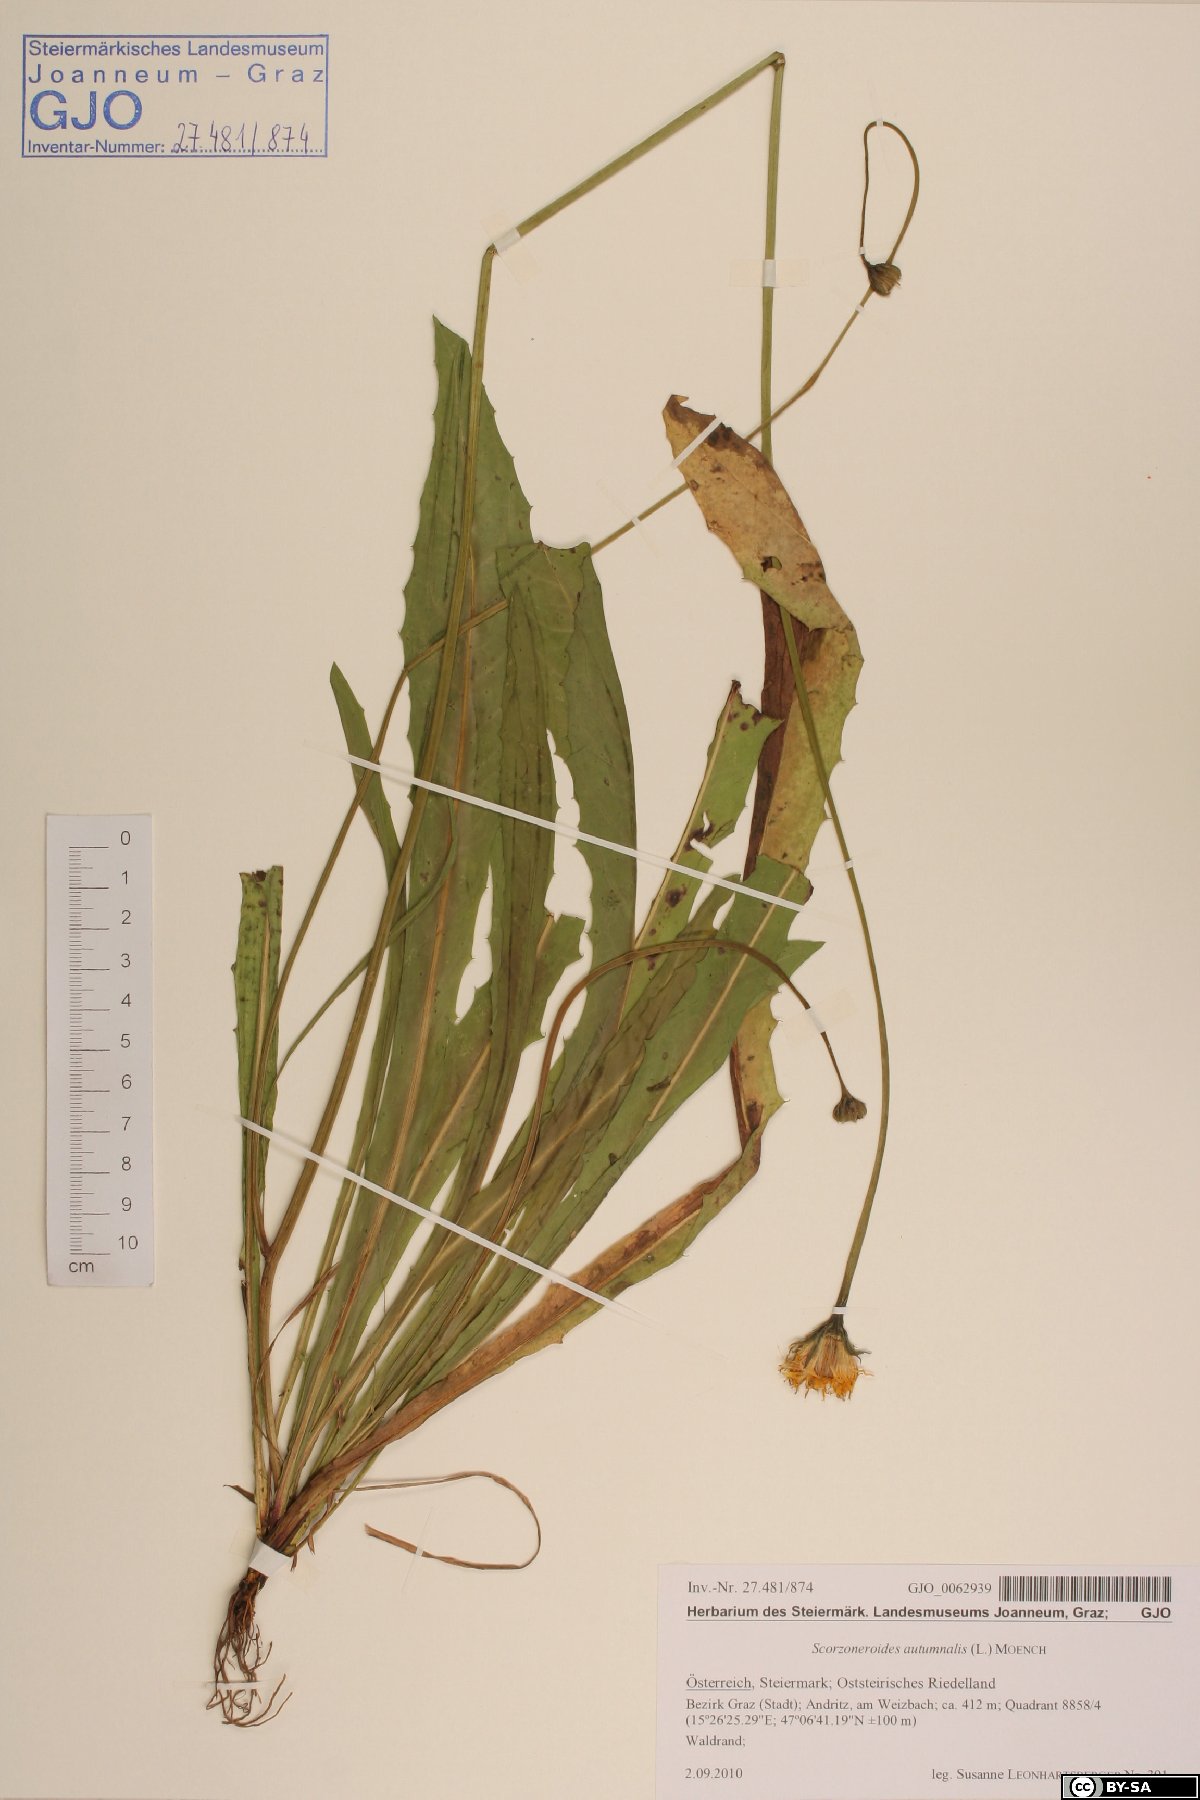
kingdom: Plantae
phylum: Tracheophyta
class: Magnoliopsida
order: Asterales
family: Asteraceae
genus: Scorzoneroides
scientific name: Scorzoneroides autumnalis
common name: Autumn hawkbit
